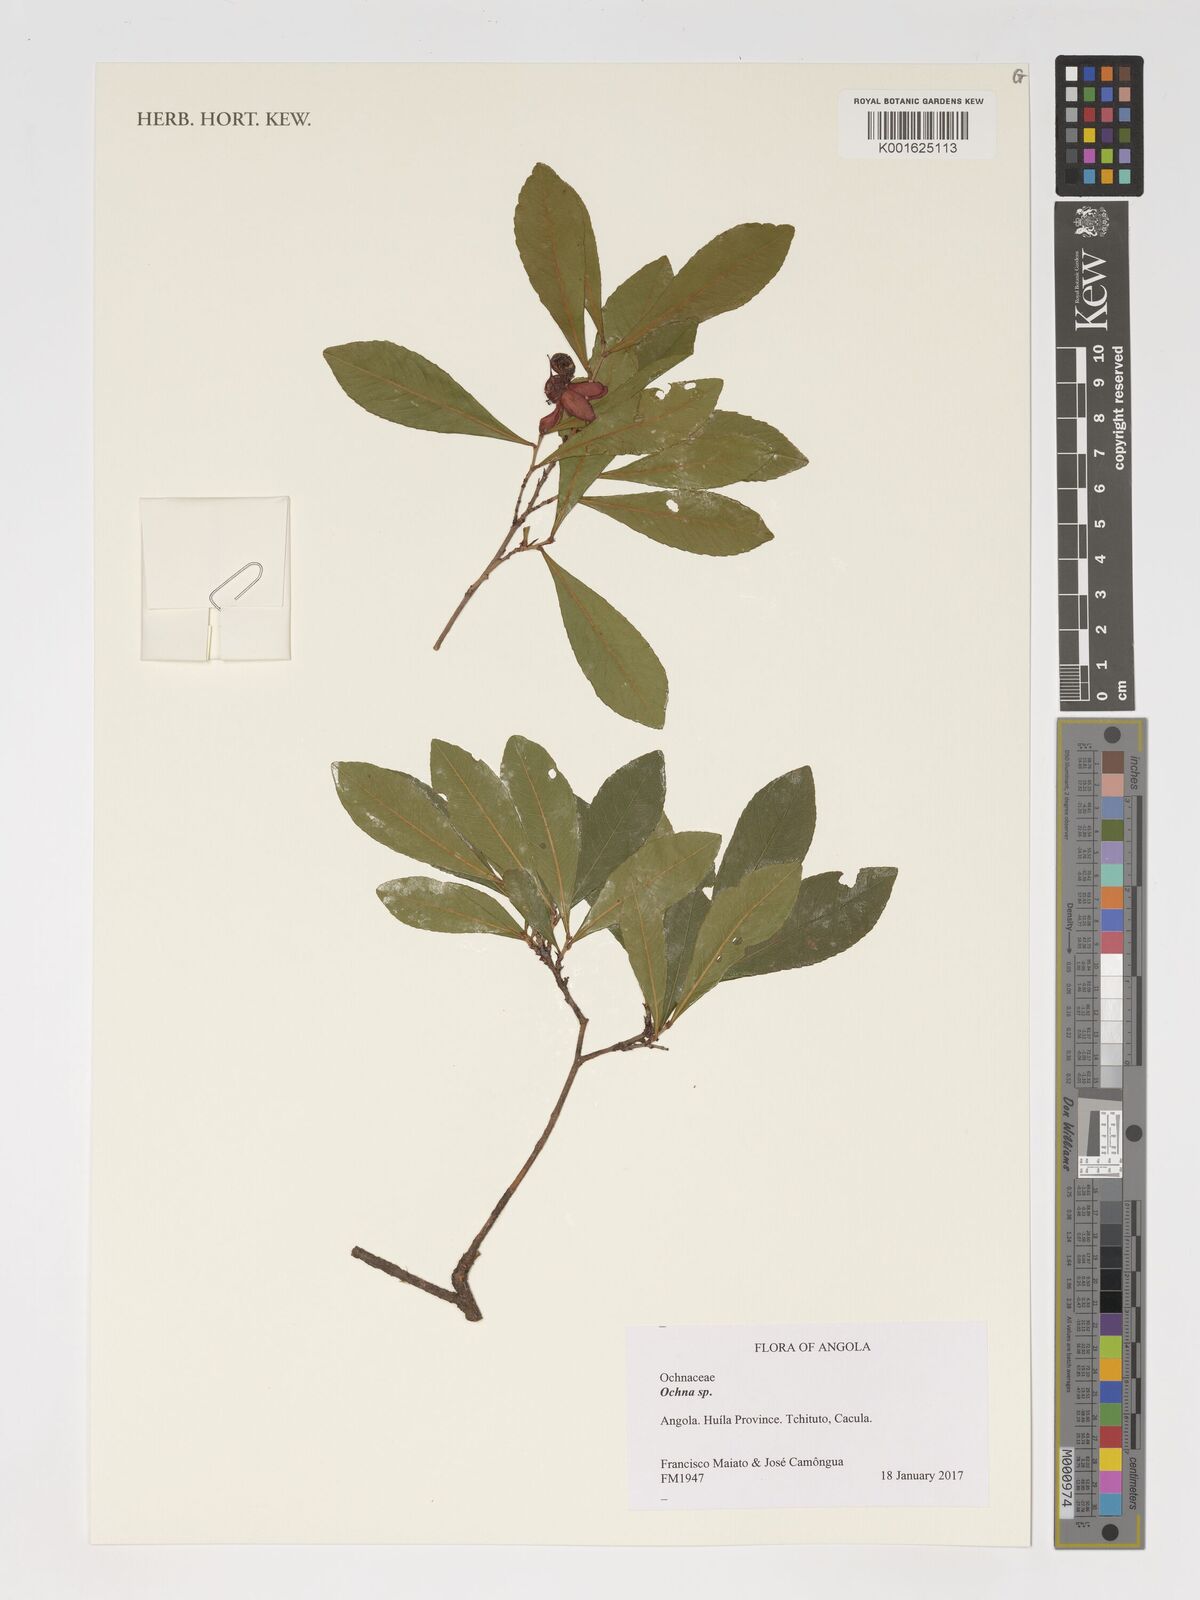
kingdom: Plantae
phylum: Tracheophyta
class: Magnoliopsida
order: Malpighiales
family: Ochnaceae
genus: Ochna
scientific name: Ochna
